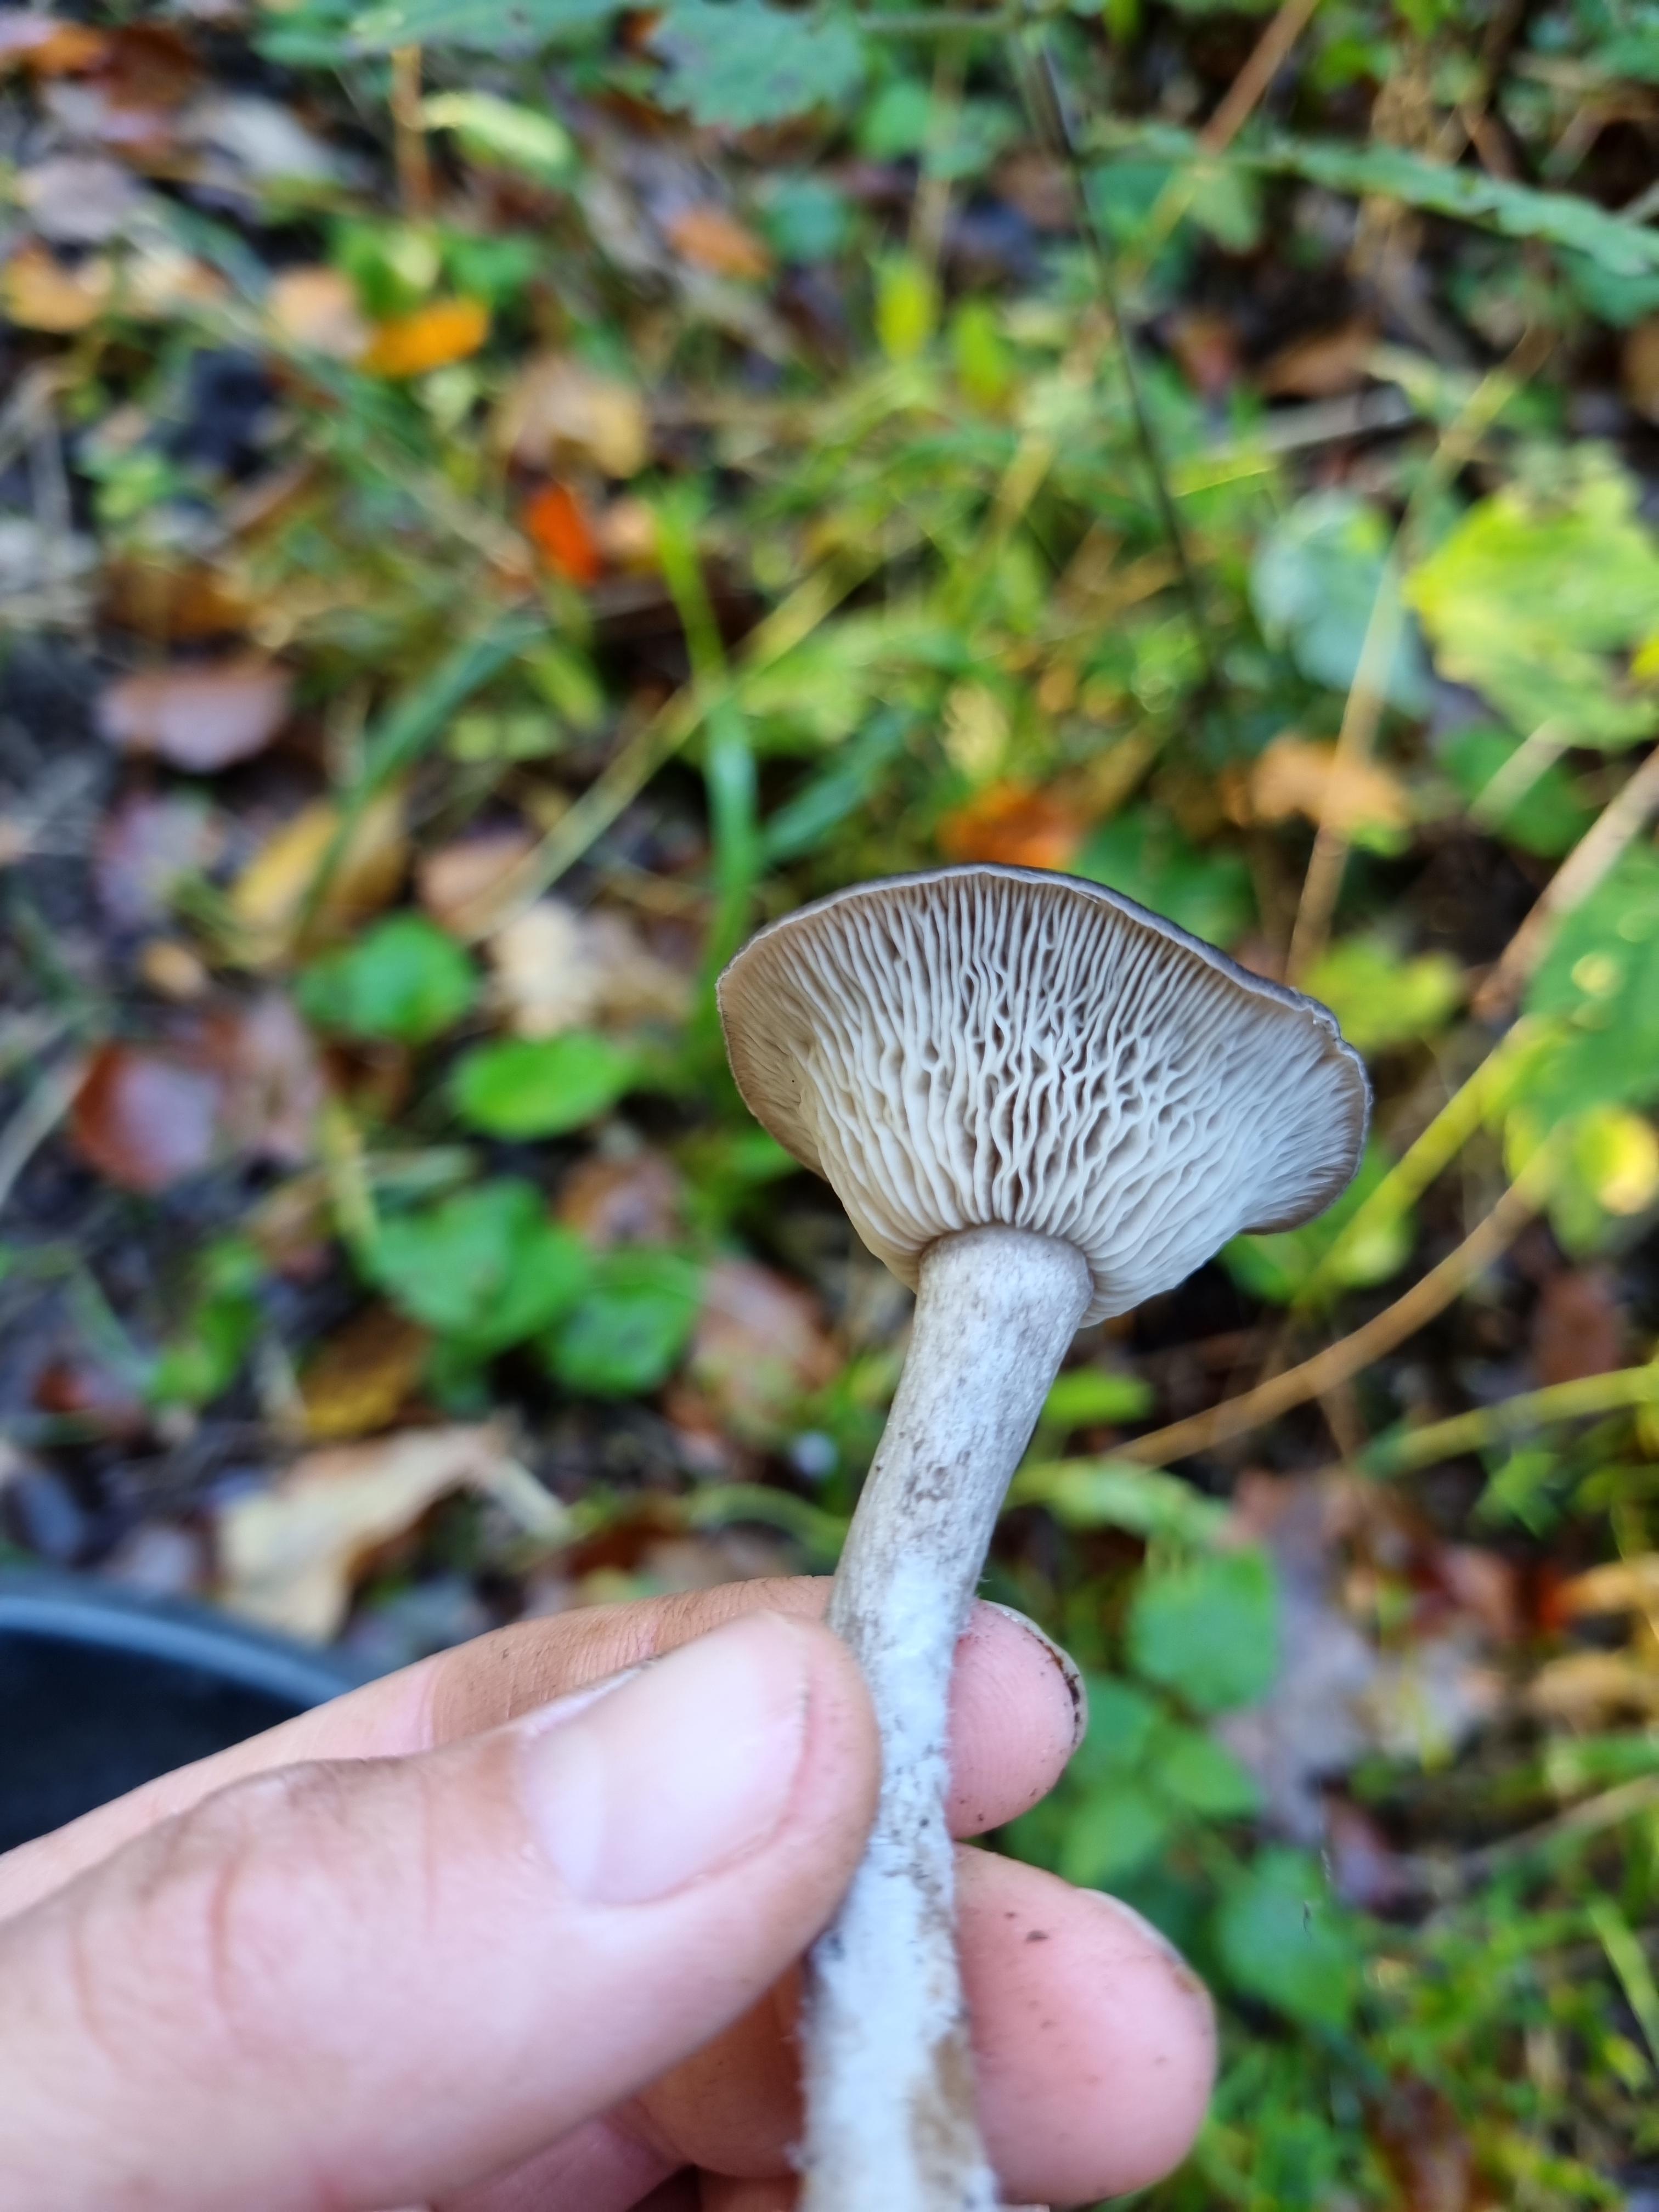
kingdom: Fungi
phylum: Basidiomycota
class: Agaricomycetes
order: Agaricales
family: Pseudoclitocybaceae
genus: Pseudoclitocybe
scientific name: Pseudoclitocybe cyathiformis
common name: almindelig bægertragthat
